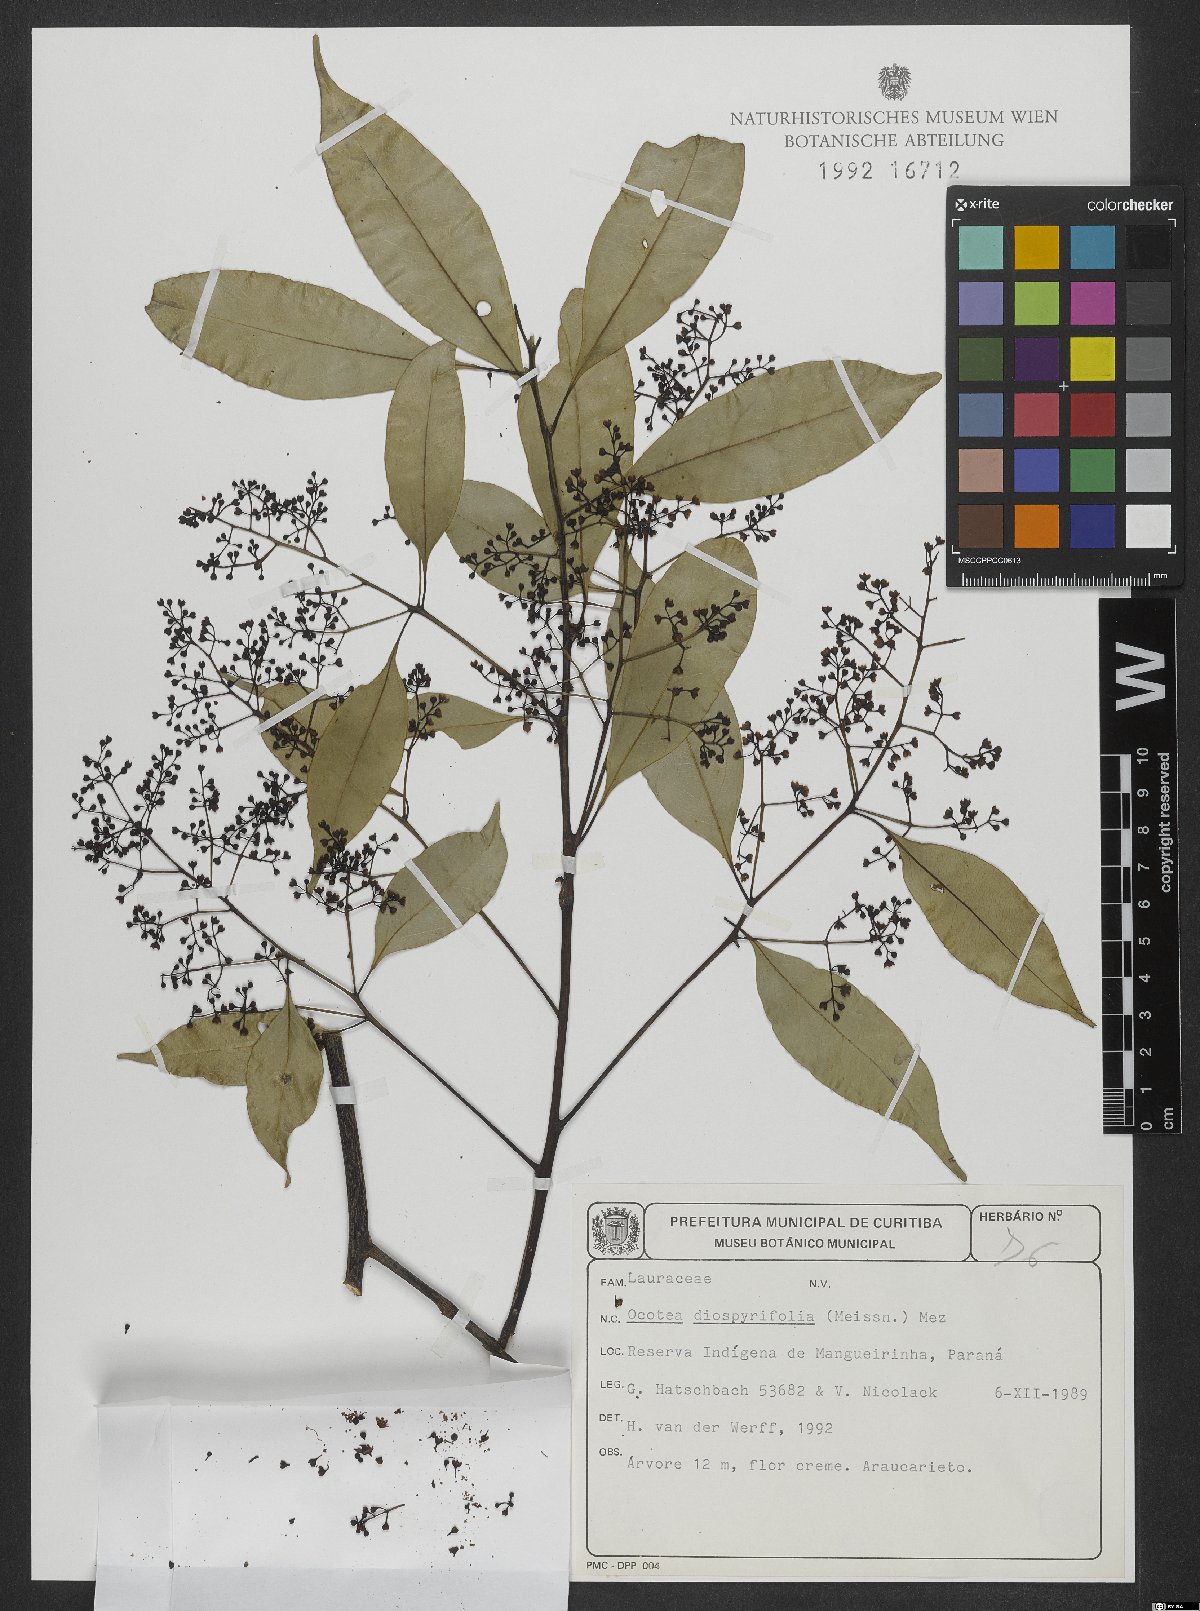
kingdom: Plantae
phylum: Tracheophyta
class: Magnoliopsida
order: Laurales
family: Lauraceae
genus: Ocotea
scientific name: Ocotea diospyrifolia
